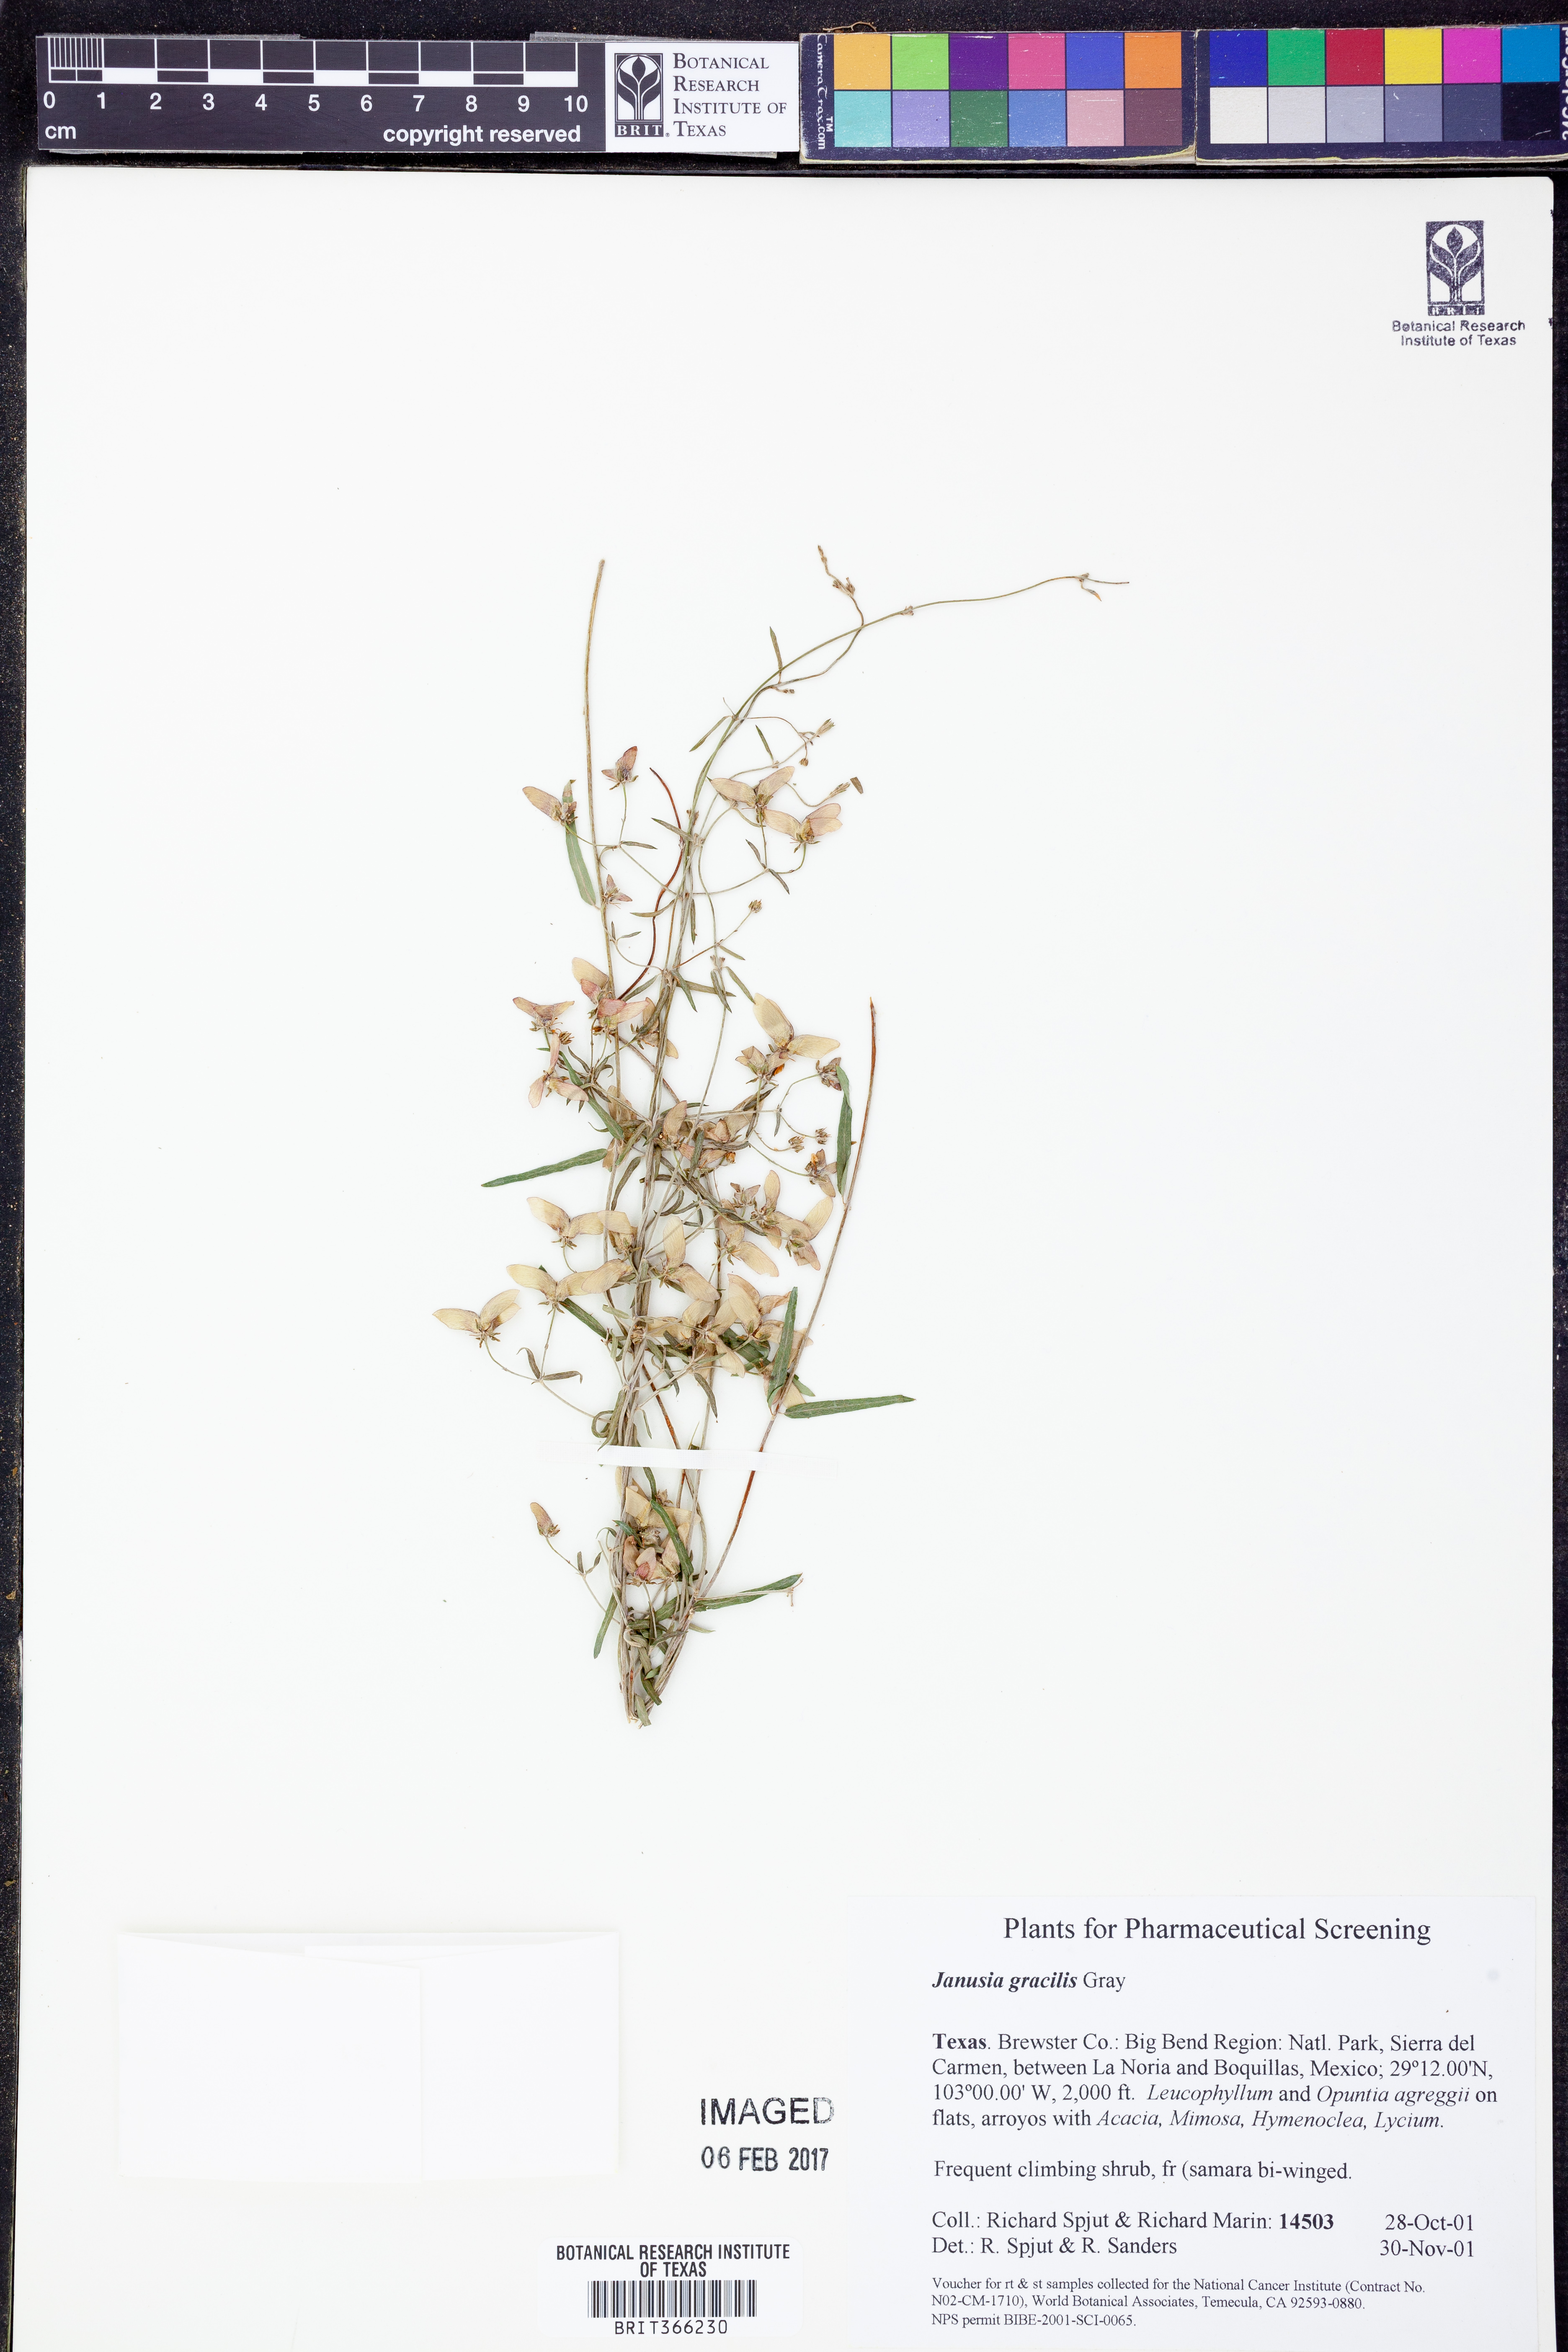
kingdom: Plantae
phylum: Tracheophyta
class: Magnoliopsida
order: Malpighiales
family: Malpighiaceae
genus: Cottsia
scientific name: Cottsia gracilis
